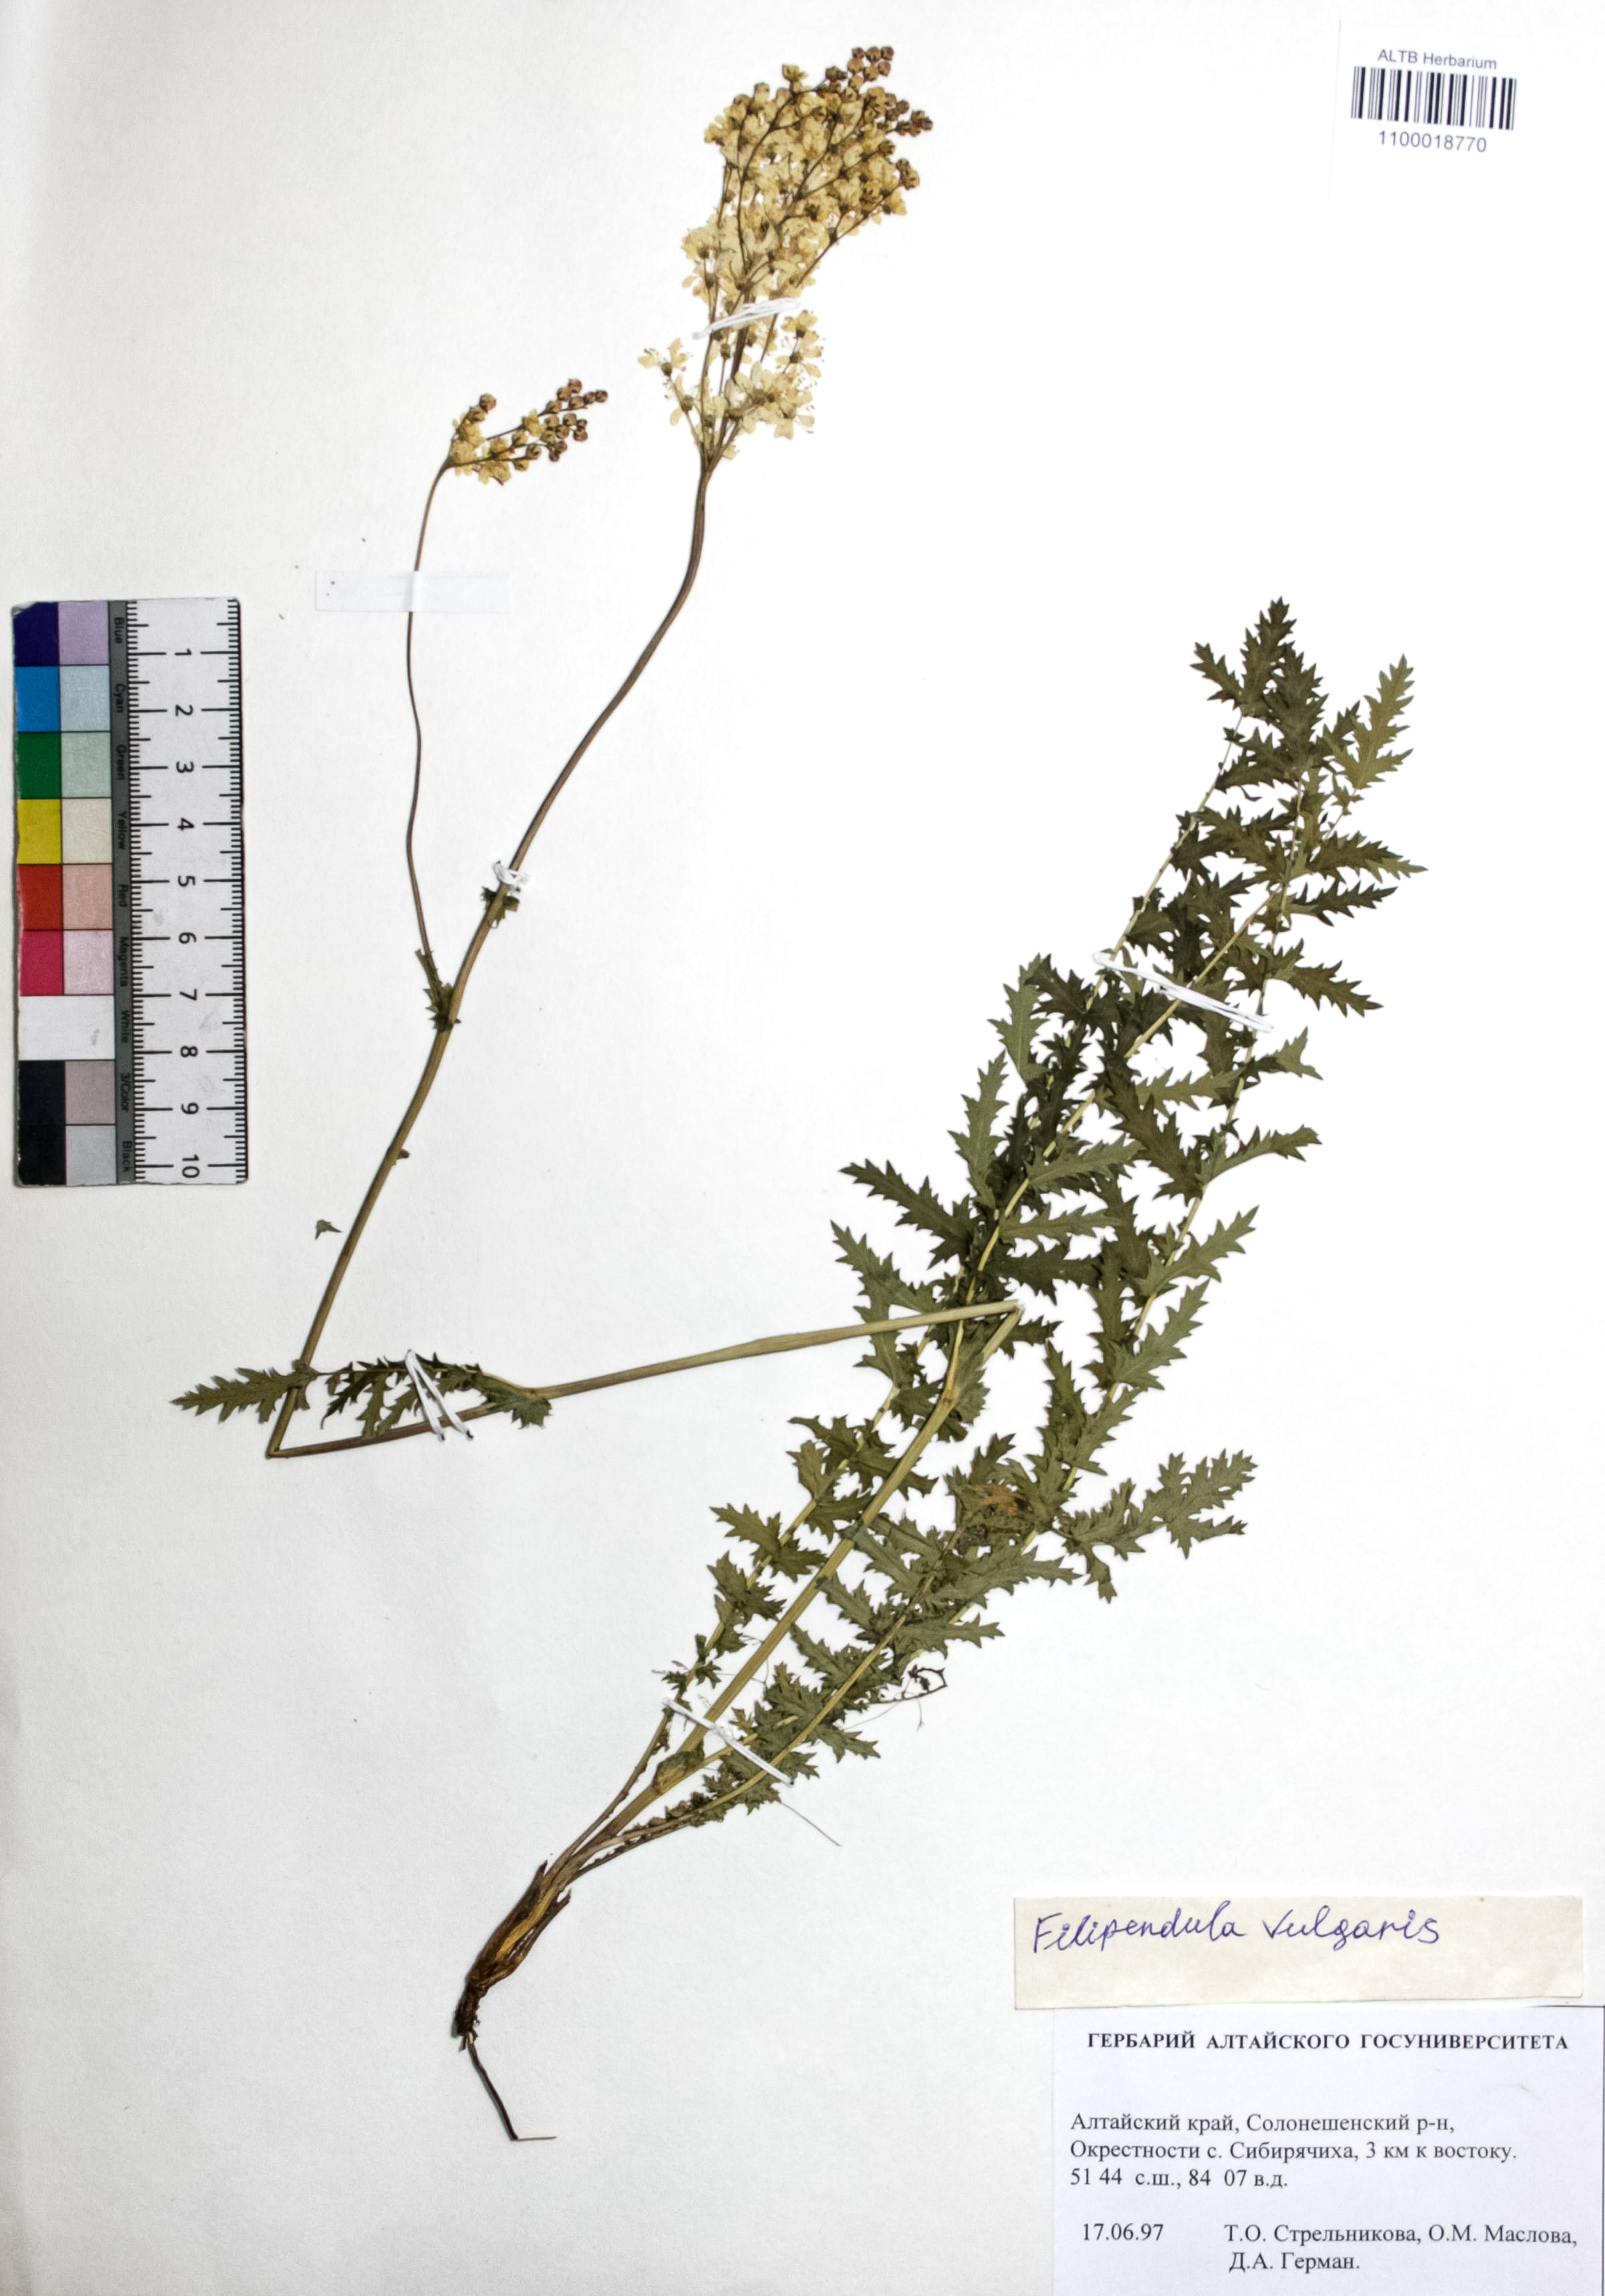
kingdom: Plantae
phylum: Tracheophyta
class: Magnoliopsida
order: Rosales
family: Rosaceae
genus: Filipendula
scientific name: Filipendula vulgaris
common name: Dropwort
